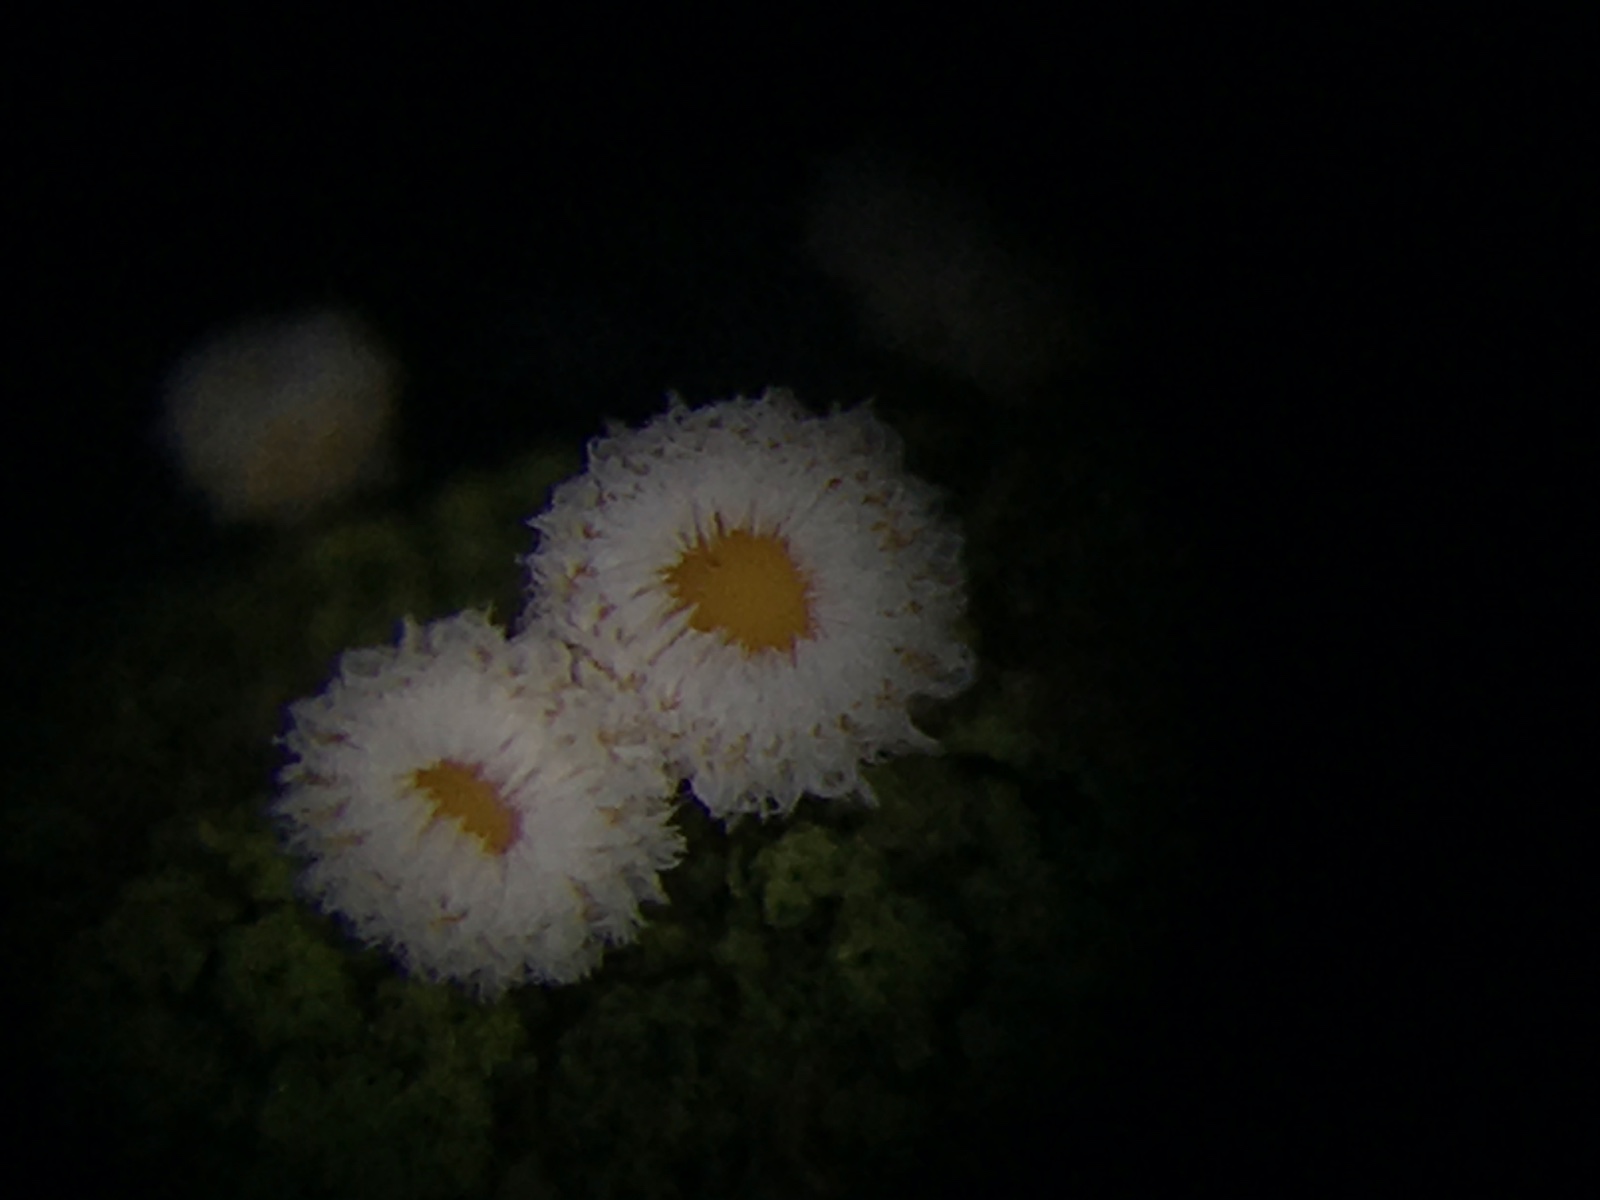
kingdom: Fungi
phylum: Ascomycota
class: Leotiomycetes
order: Helotiales
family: Lachnaceae
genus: Capitotricha
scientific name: Capitotricha bicolor
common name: prægtig frynseskive
